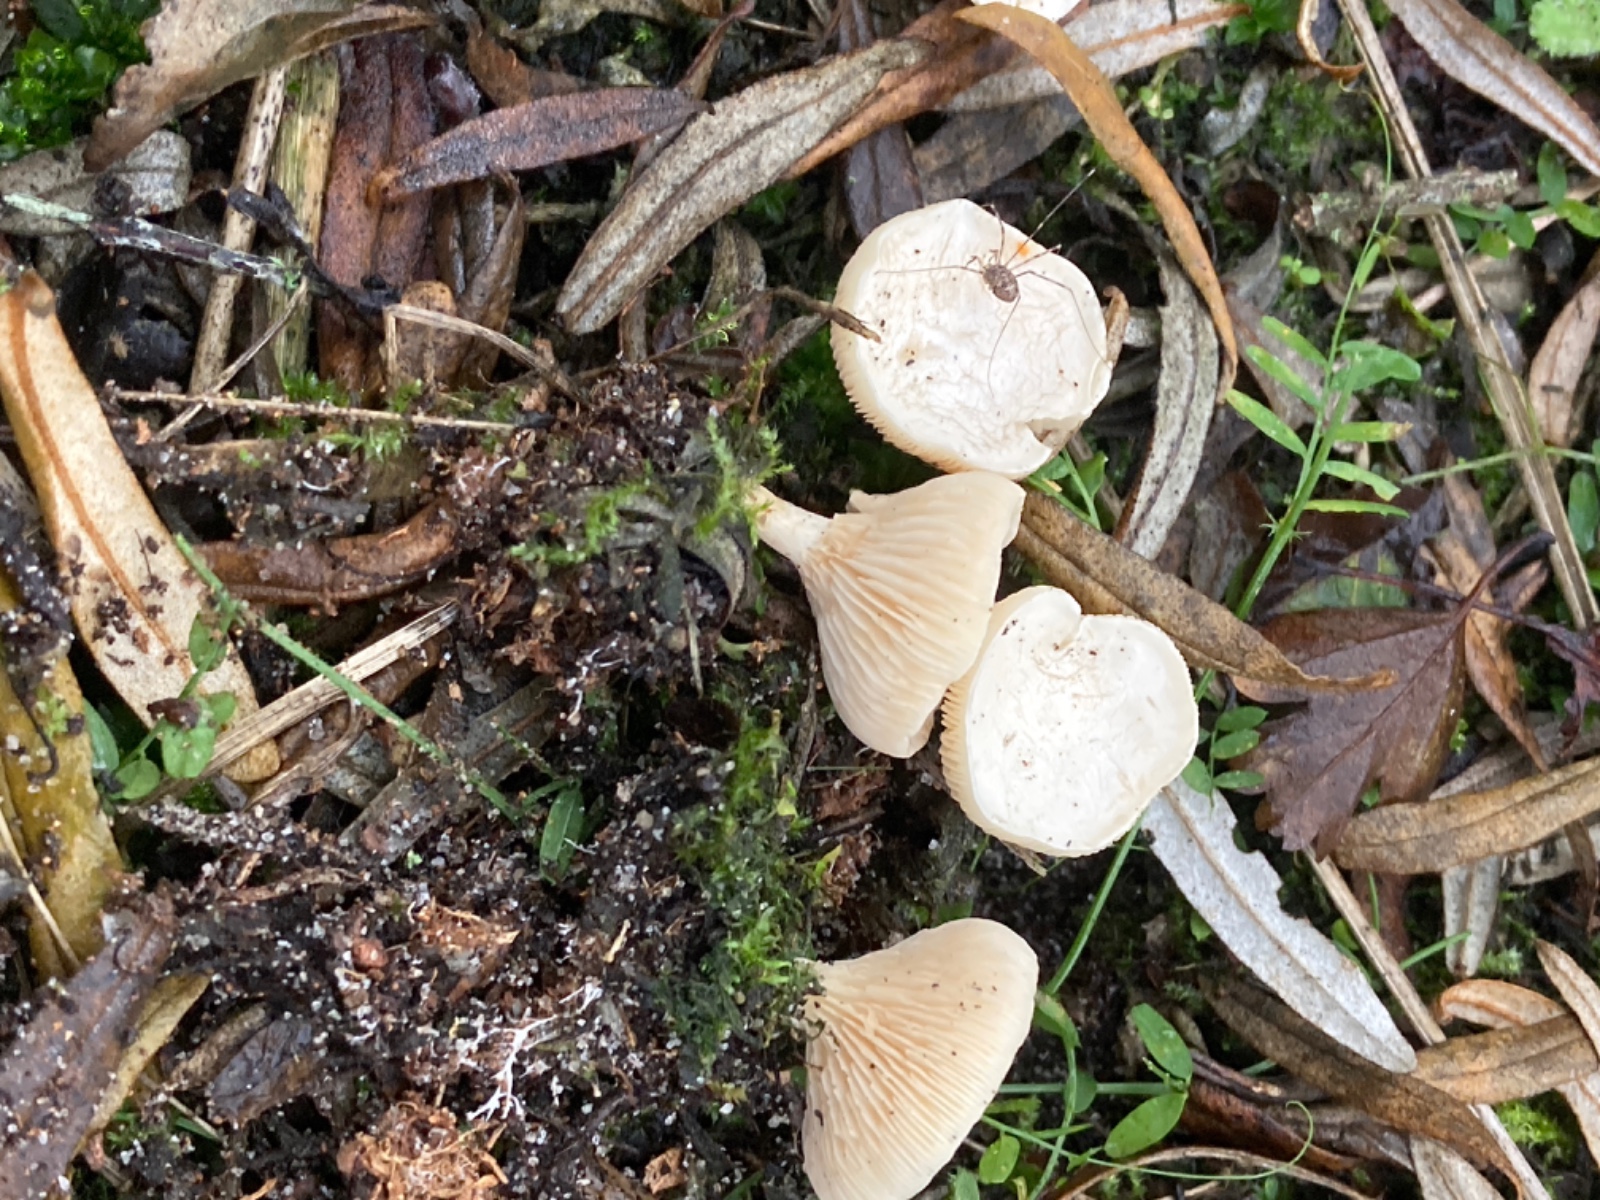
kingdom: Fungi
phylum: Basidiomycota
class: Agaricomycetes
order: Agaricales
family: Tricholomataceae
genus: Lulesia
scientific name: Lulesia
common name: hvid troldhat
